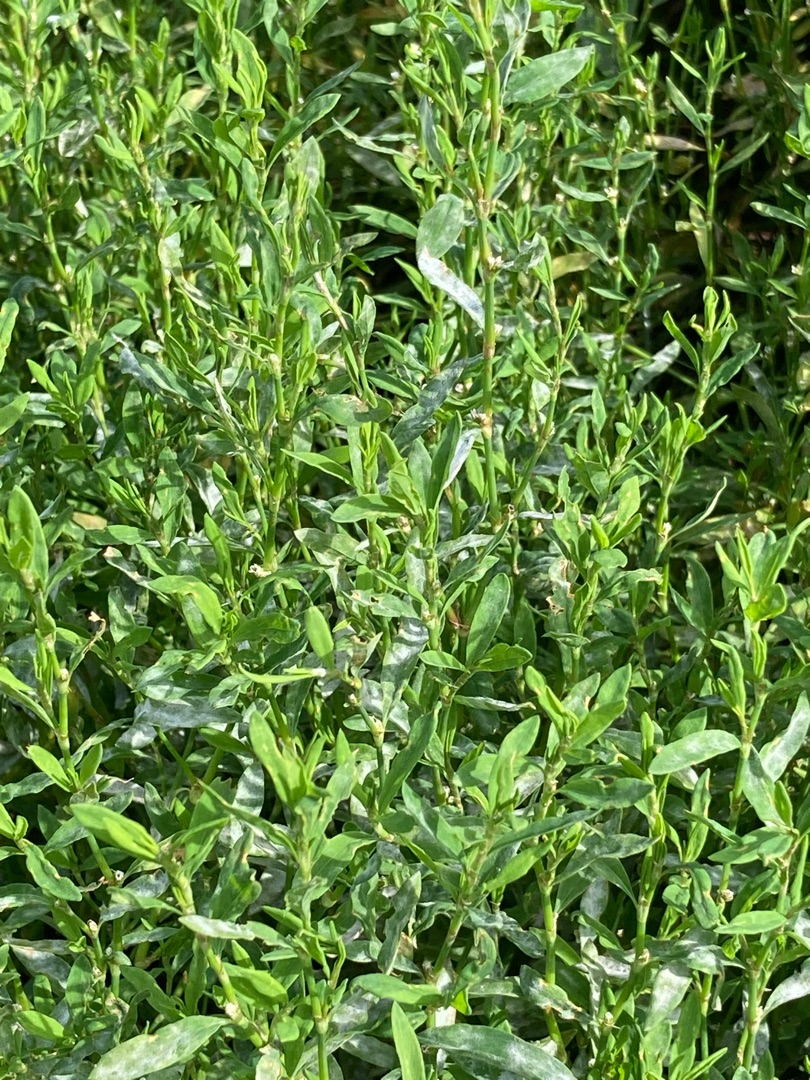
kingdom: Plantae
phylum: Tracheophyta
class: Magnoliopsida
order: Caryophyllales
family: Polygonaceae
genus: Polygonum
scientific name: Polygonum aviculare
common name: Vej-pileurt
